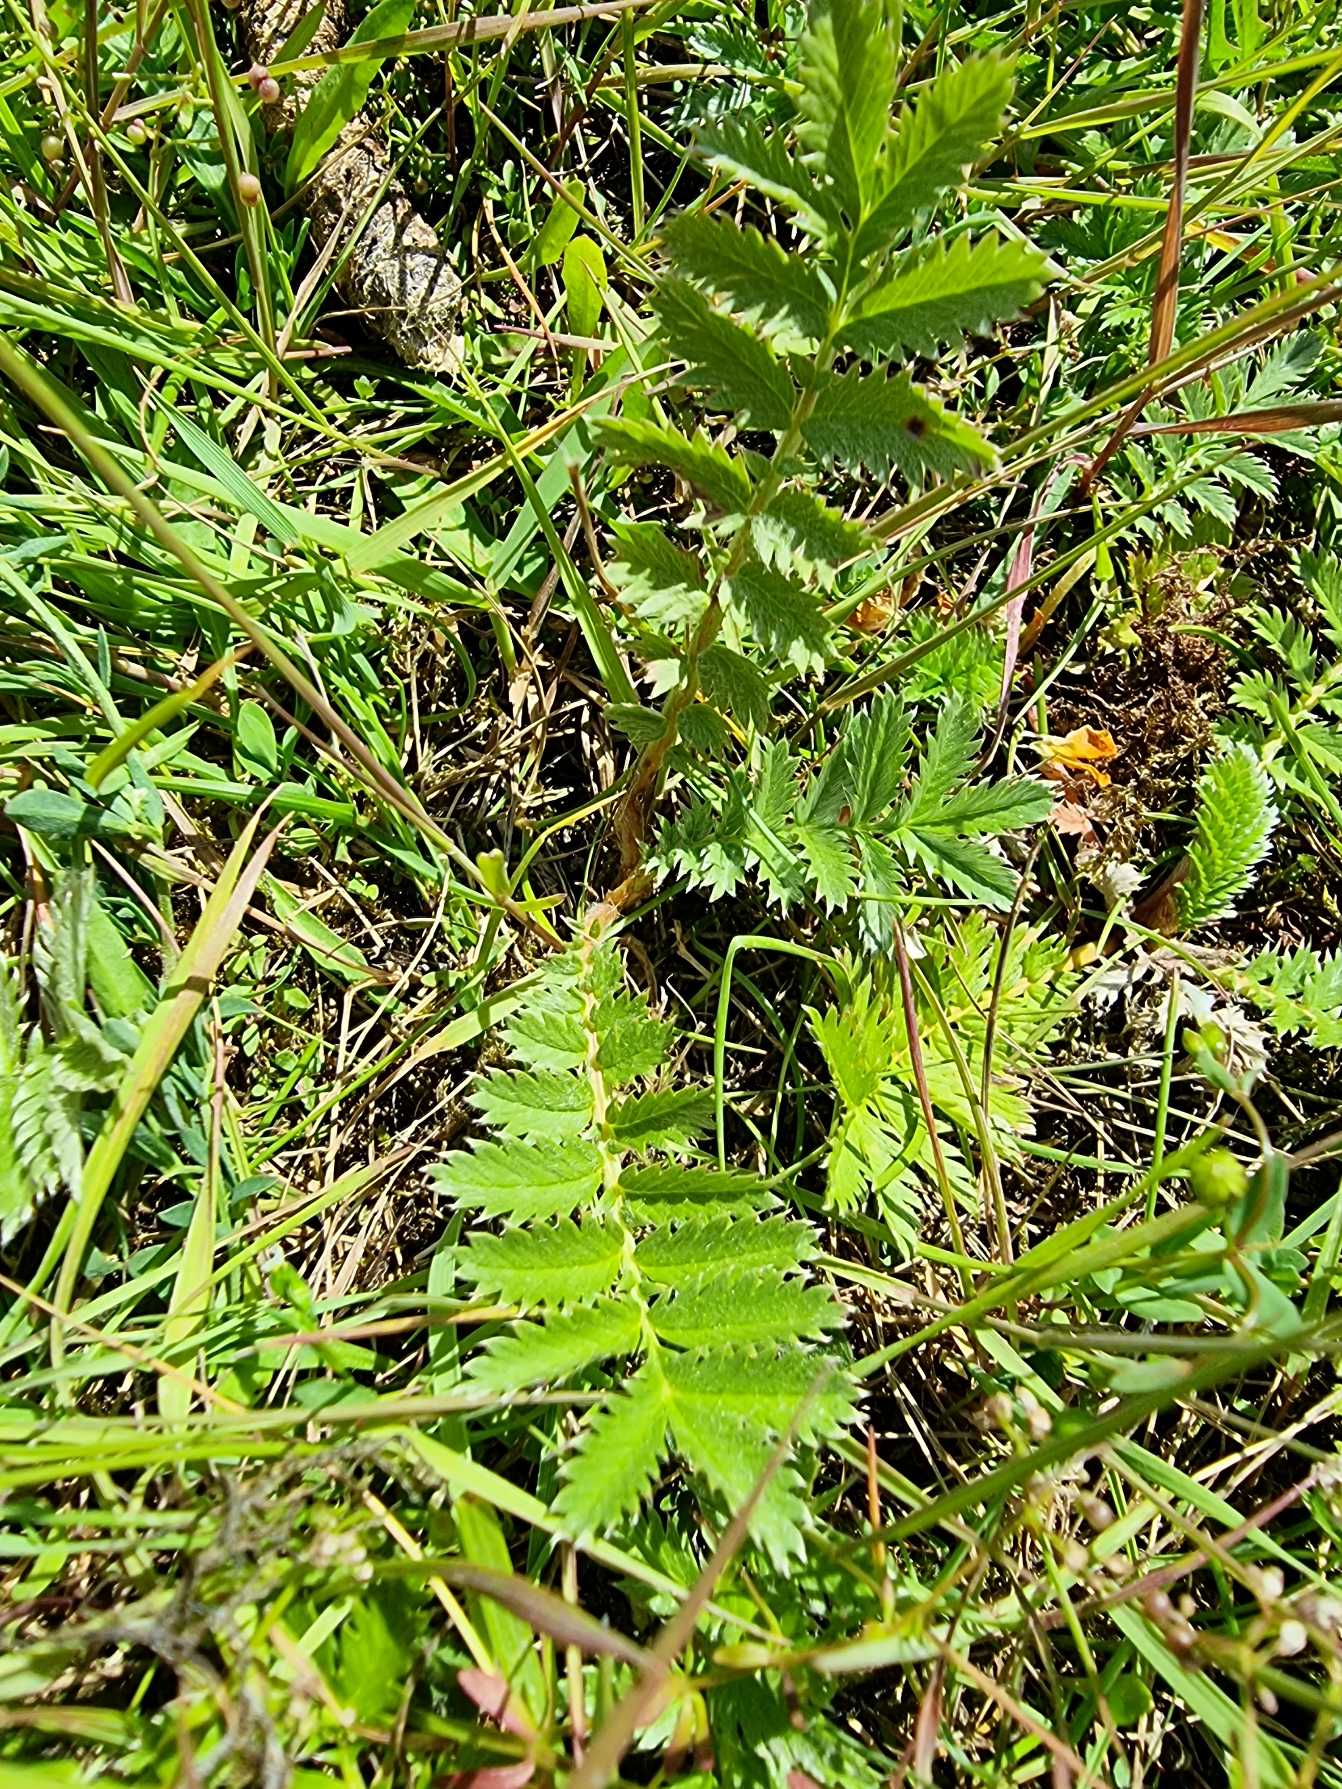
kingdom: Plantae
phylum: Tracheophyta
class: Magnoliopsida
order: Rosales
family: Rosaceae
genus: Argentina
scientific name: Argentina anserina
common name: Gåsepotentil
